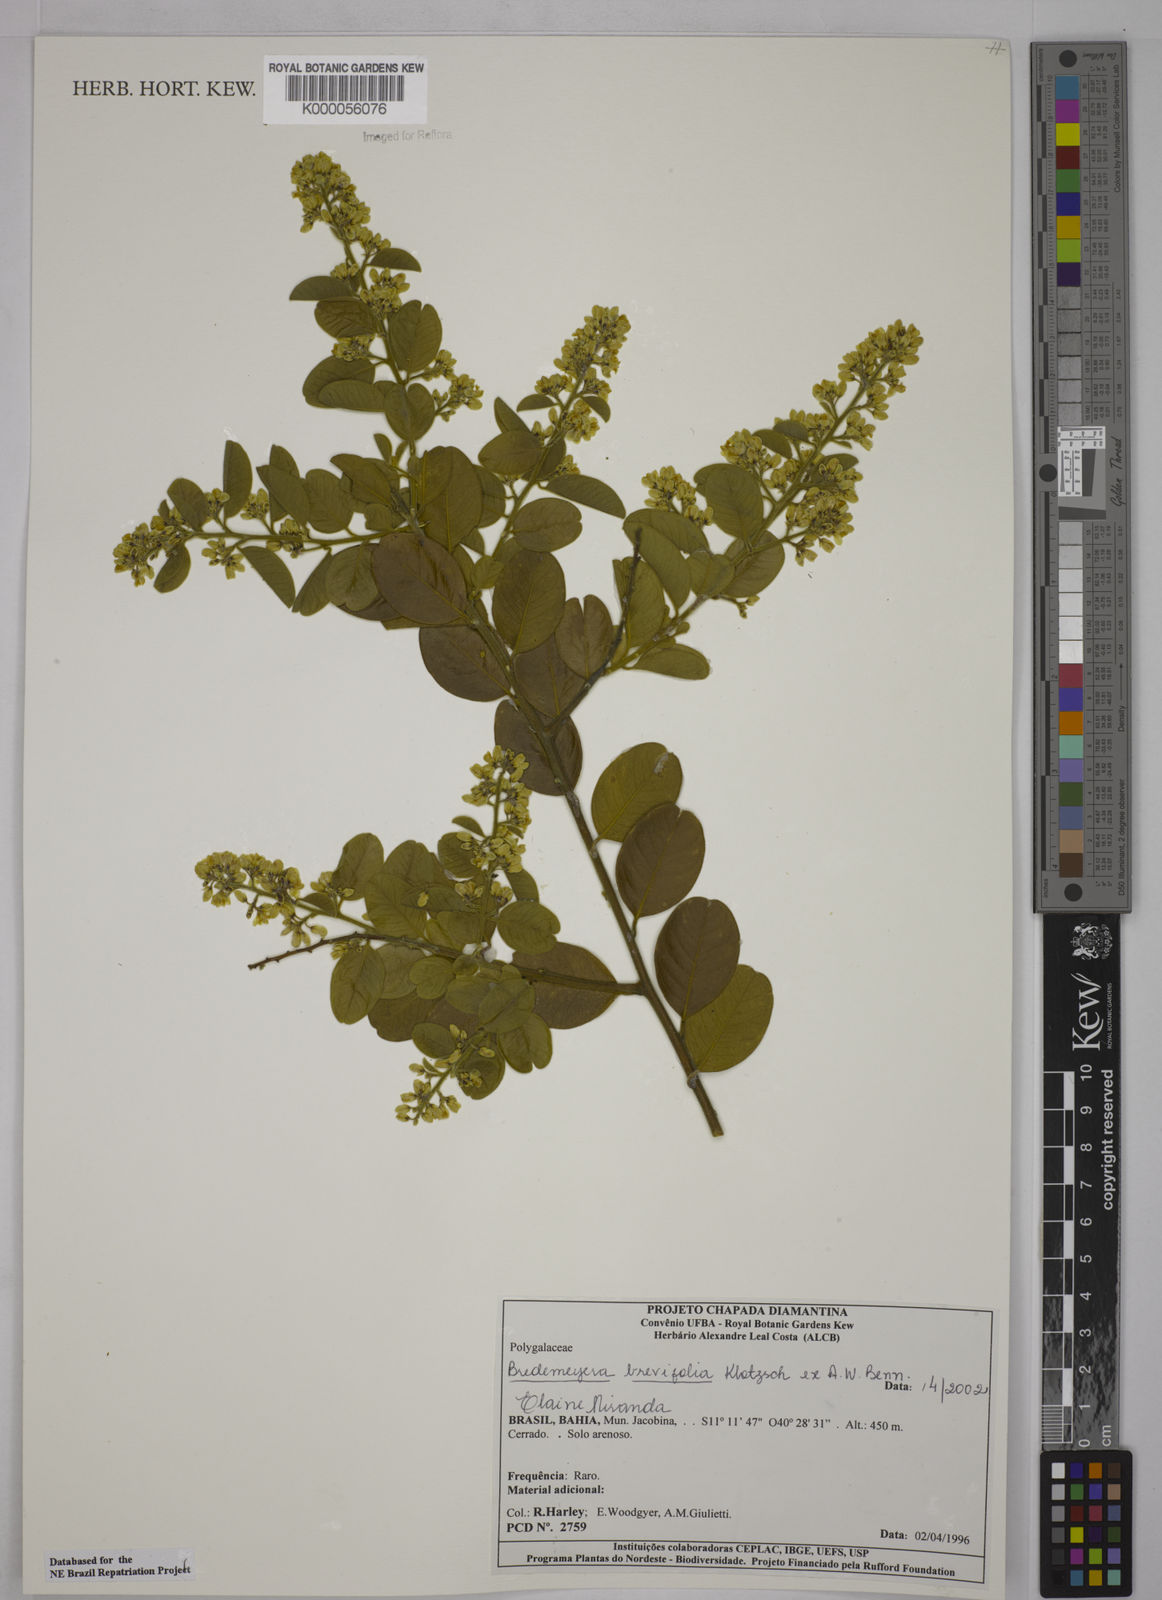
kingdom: Plantae
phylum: Tracheophyta
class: Magnoliopsida
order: Fabales
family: Polygalaceae
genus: Bredemeyera
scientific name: Bredemeyera brevifolia
